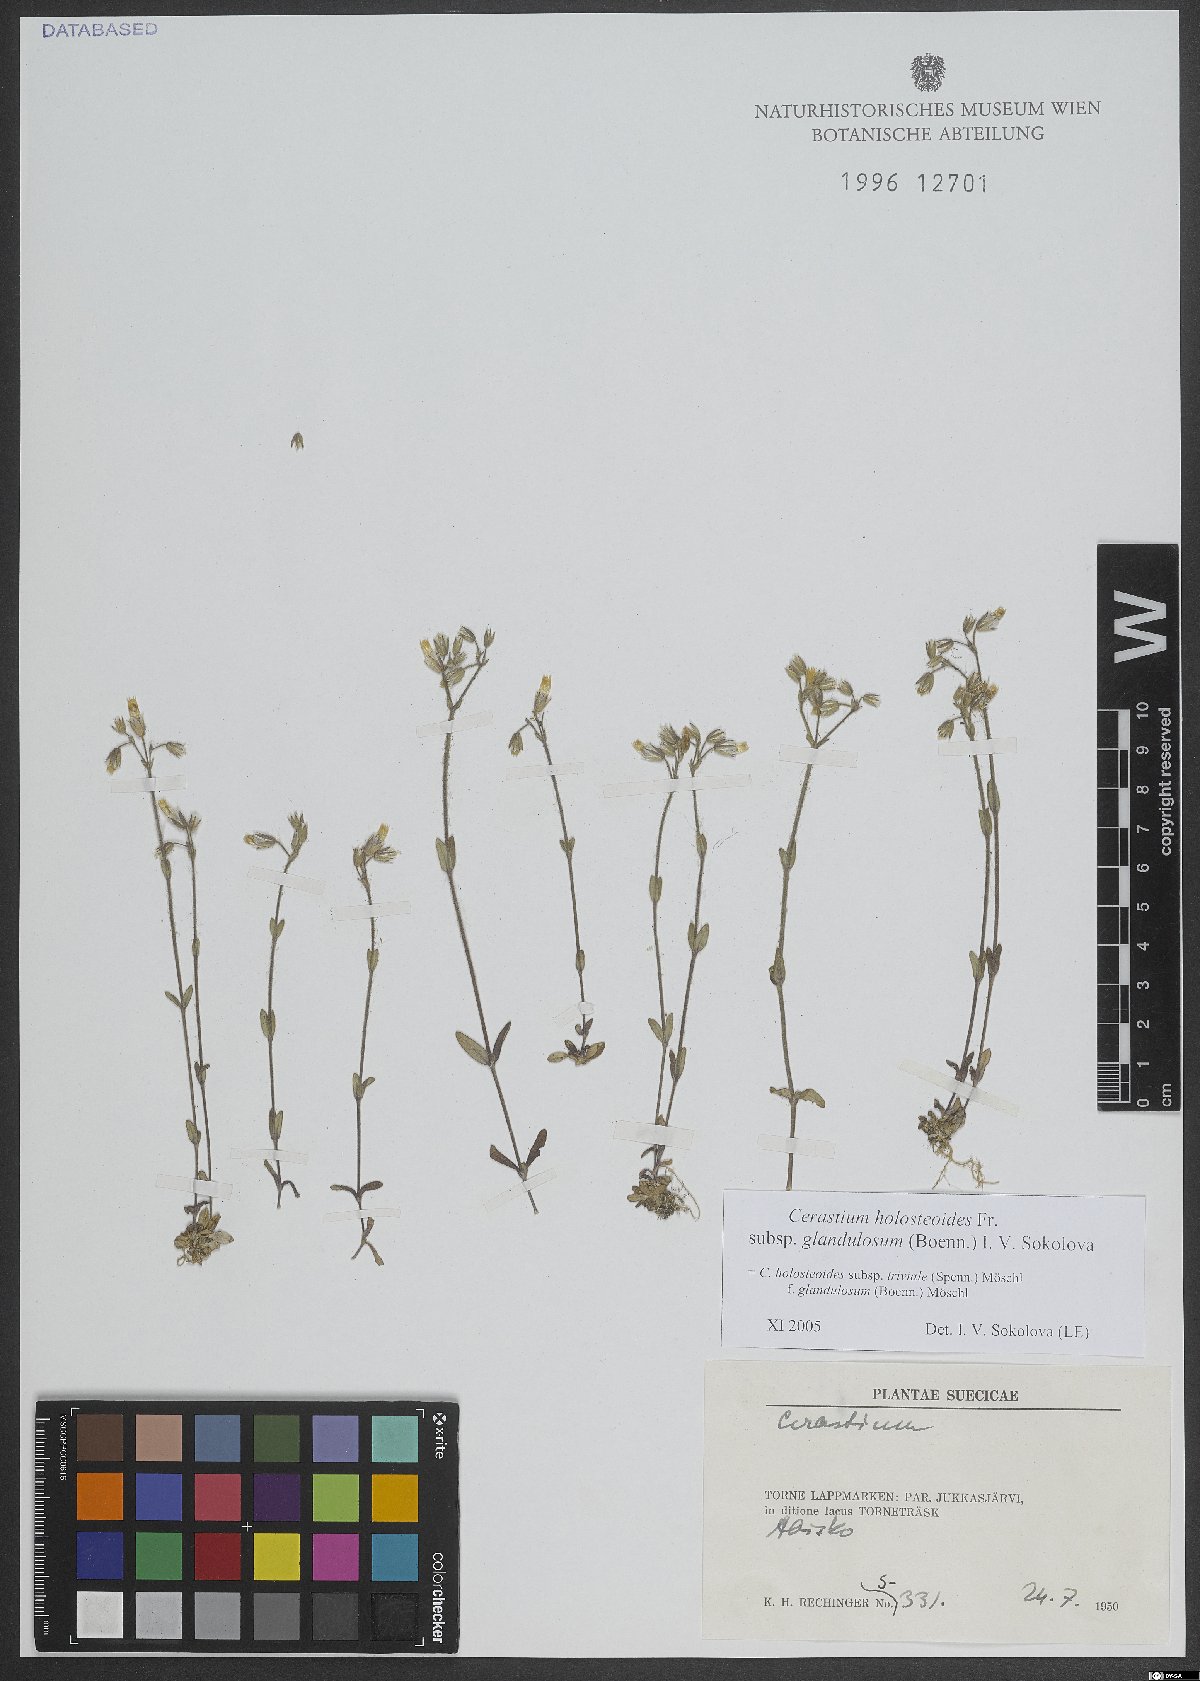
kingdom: Plantae
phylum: Tracheophyta
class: Magnoliopsida
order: Caryophyllales
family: Caryophyllaceae
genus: Cerastium
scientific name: Cerastium holosteoides
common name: Big chickweed
